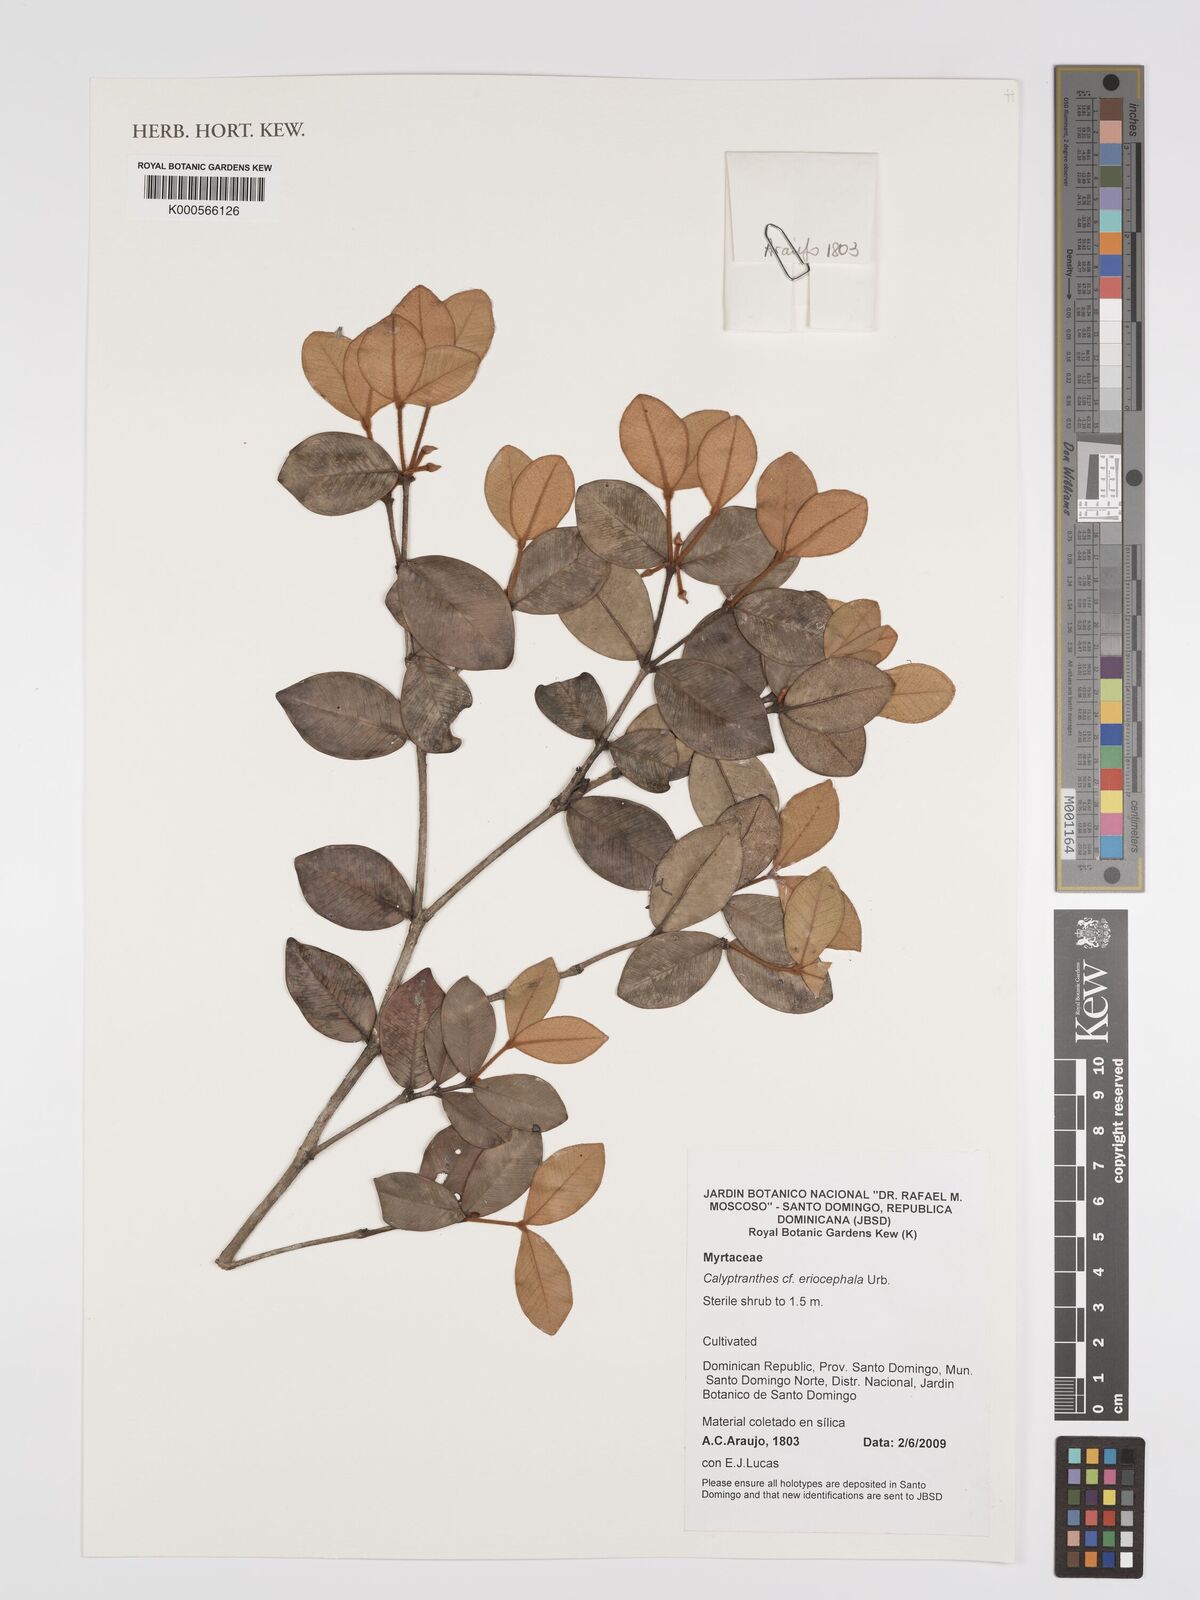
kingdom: Plantae
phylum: Tracheophyta
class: Magnoliopsida
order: Myrtales
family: Myrtaceae
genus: Myrcia
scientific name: Myrcia eriocephala
